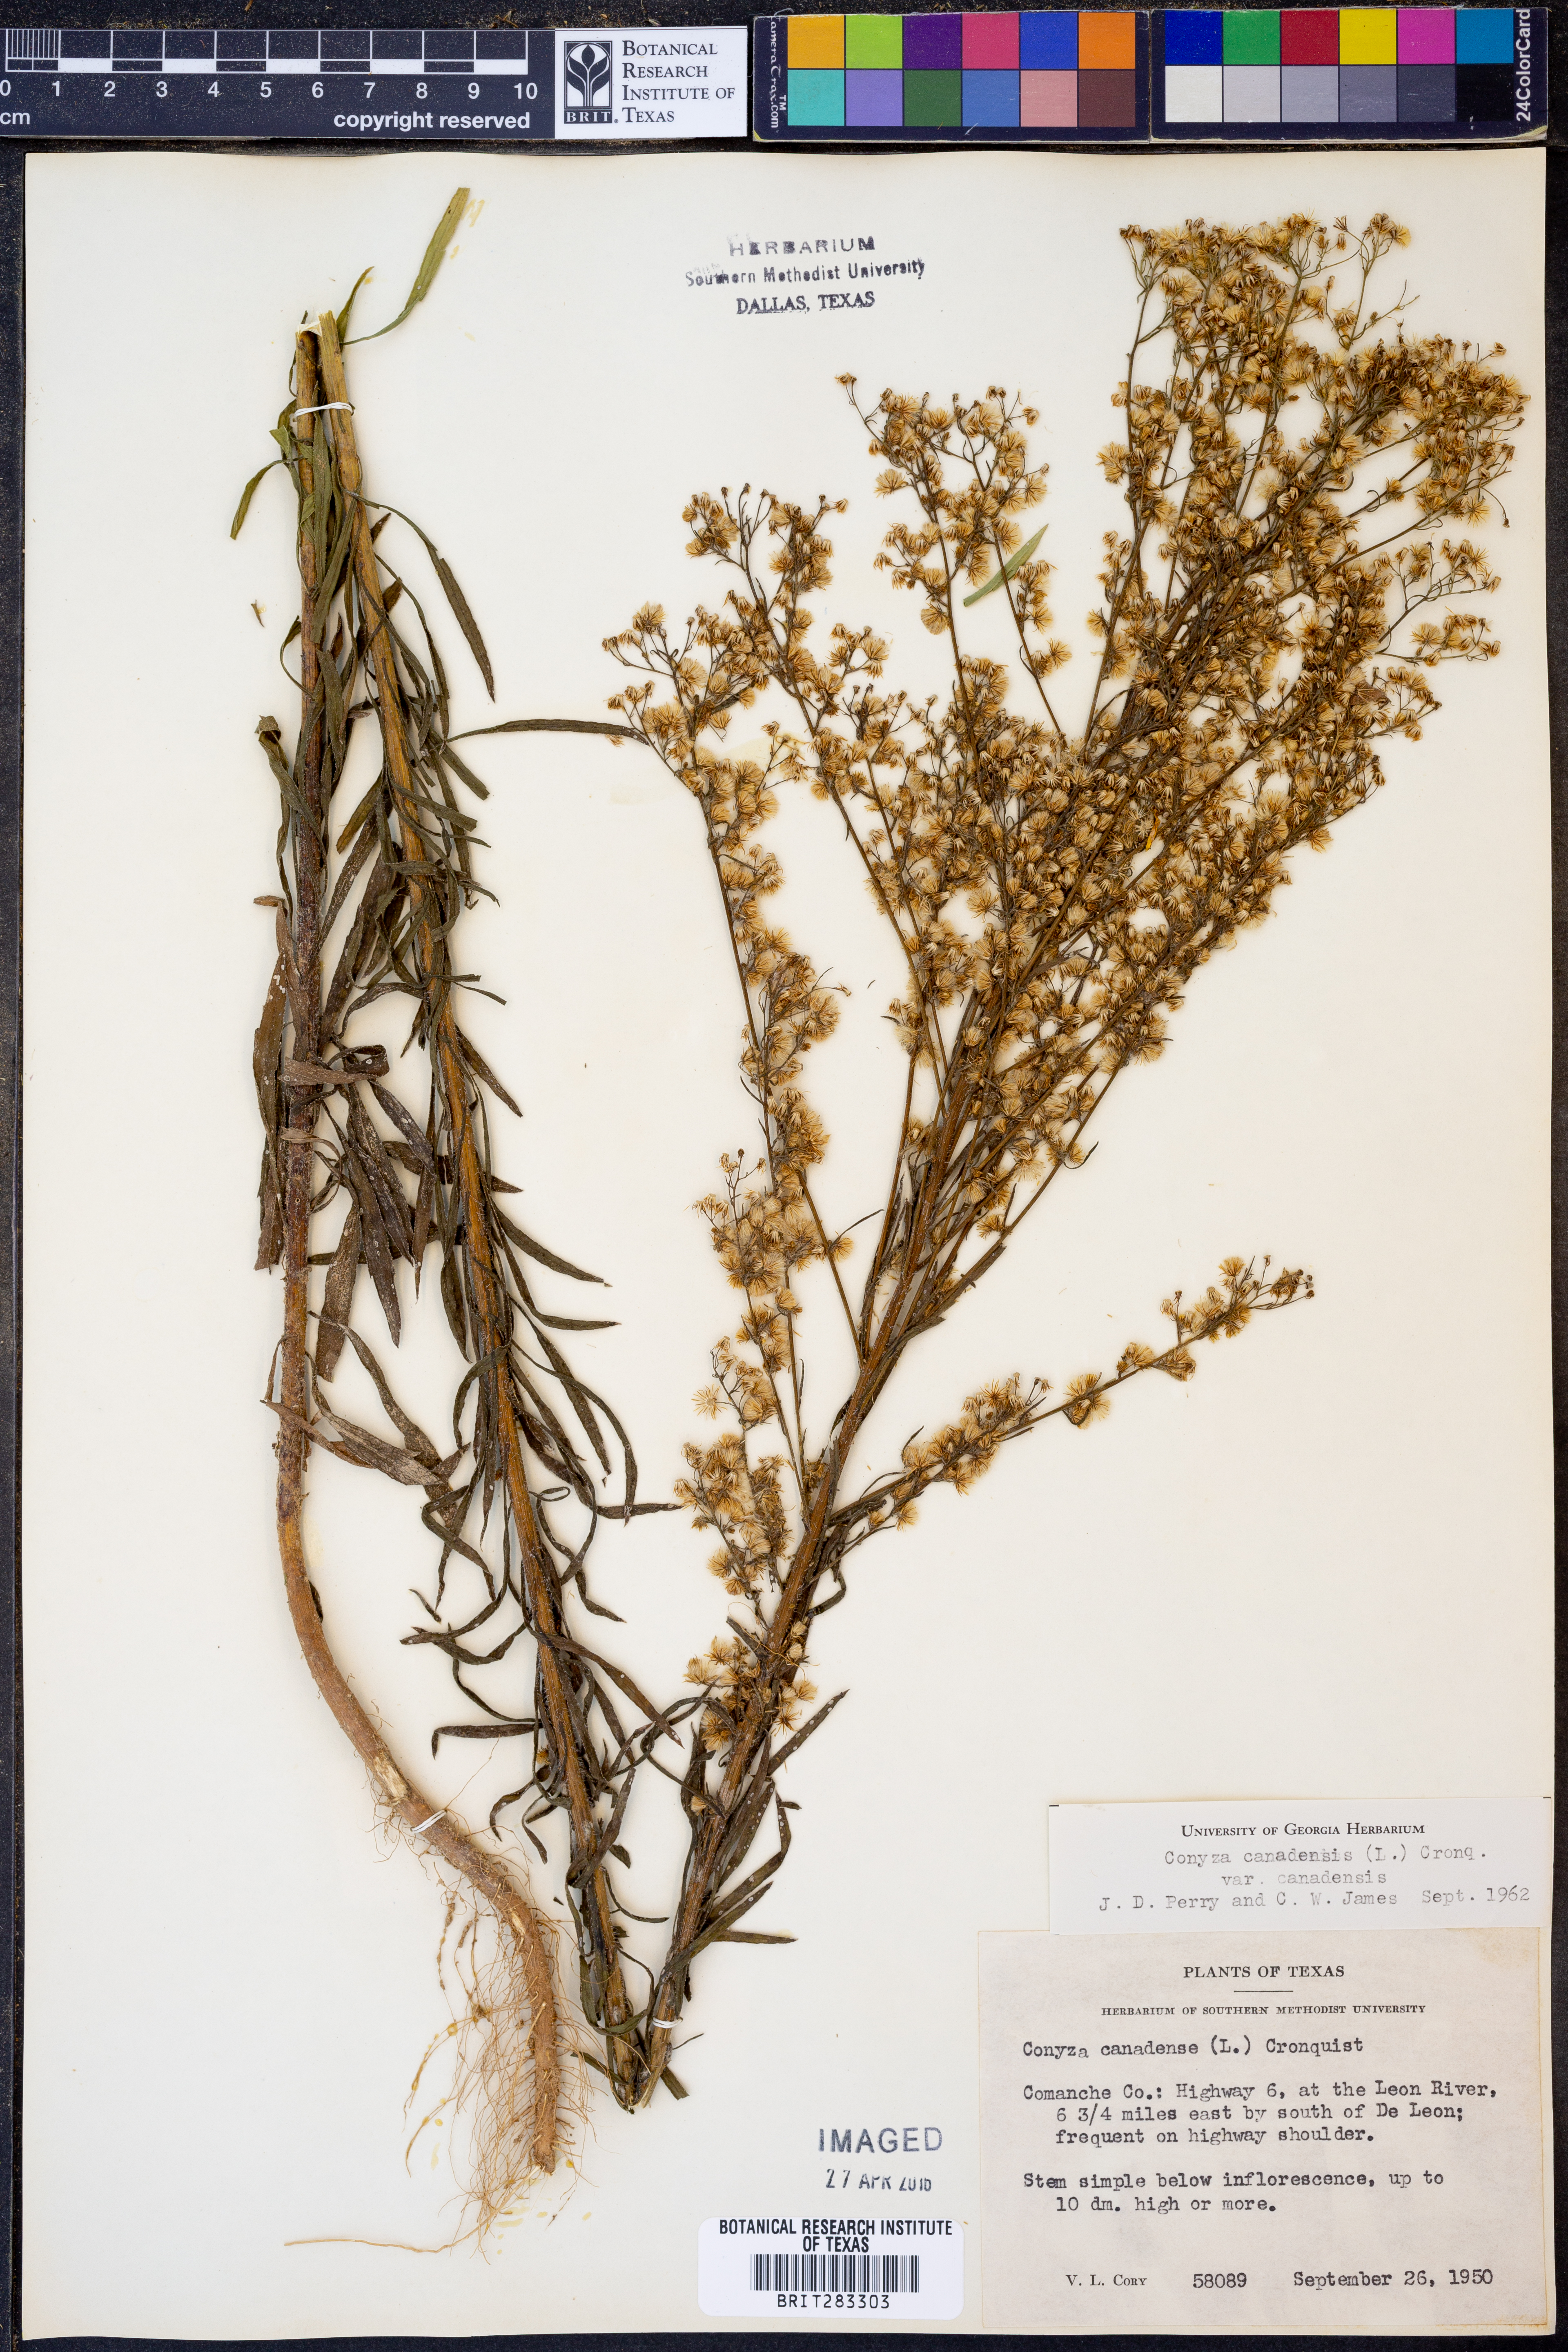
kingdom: Plantae
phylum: Tracheophyta
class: Magnoliopsida
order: Asterales
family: Asteraceae
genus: Erigeron
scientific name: Erigeron canadensis
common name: Canadian fleabane
